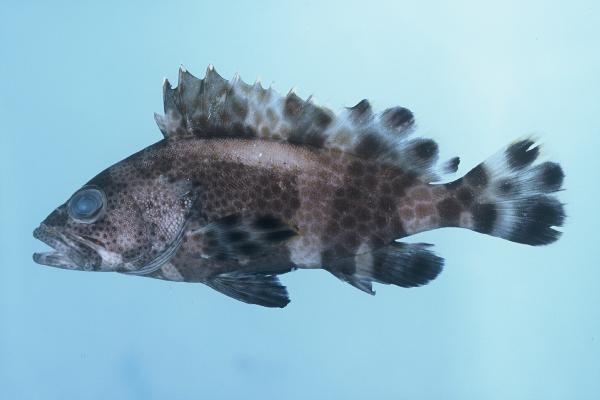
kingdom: Animalia
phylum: Chordata
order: Perciformes
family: Serranidae
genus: Epinephelus
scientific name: Epinephelus macrospilos
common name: Snubnose grouper
